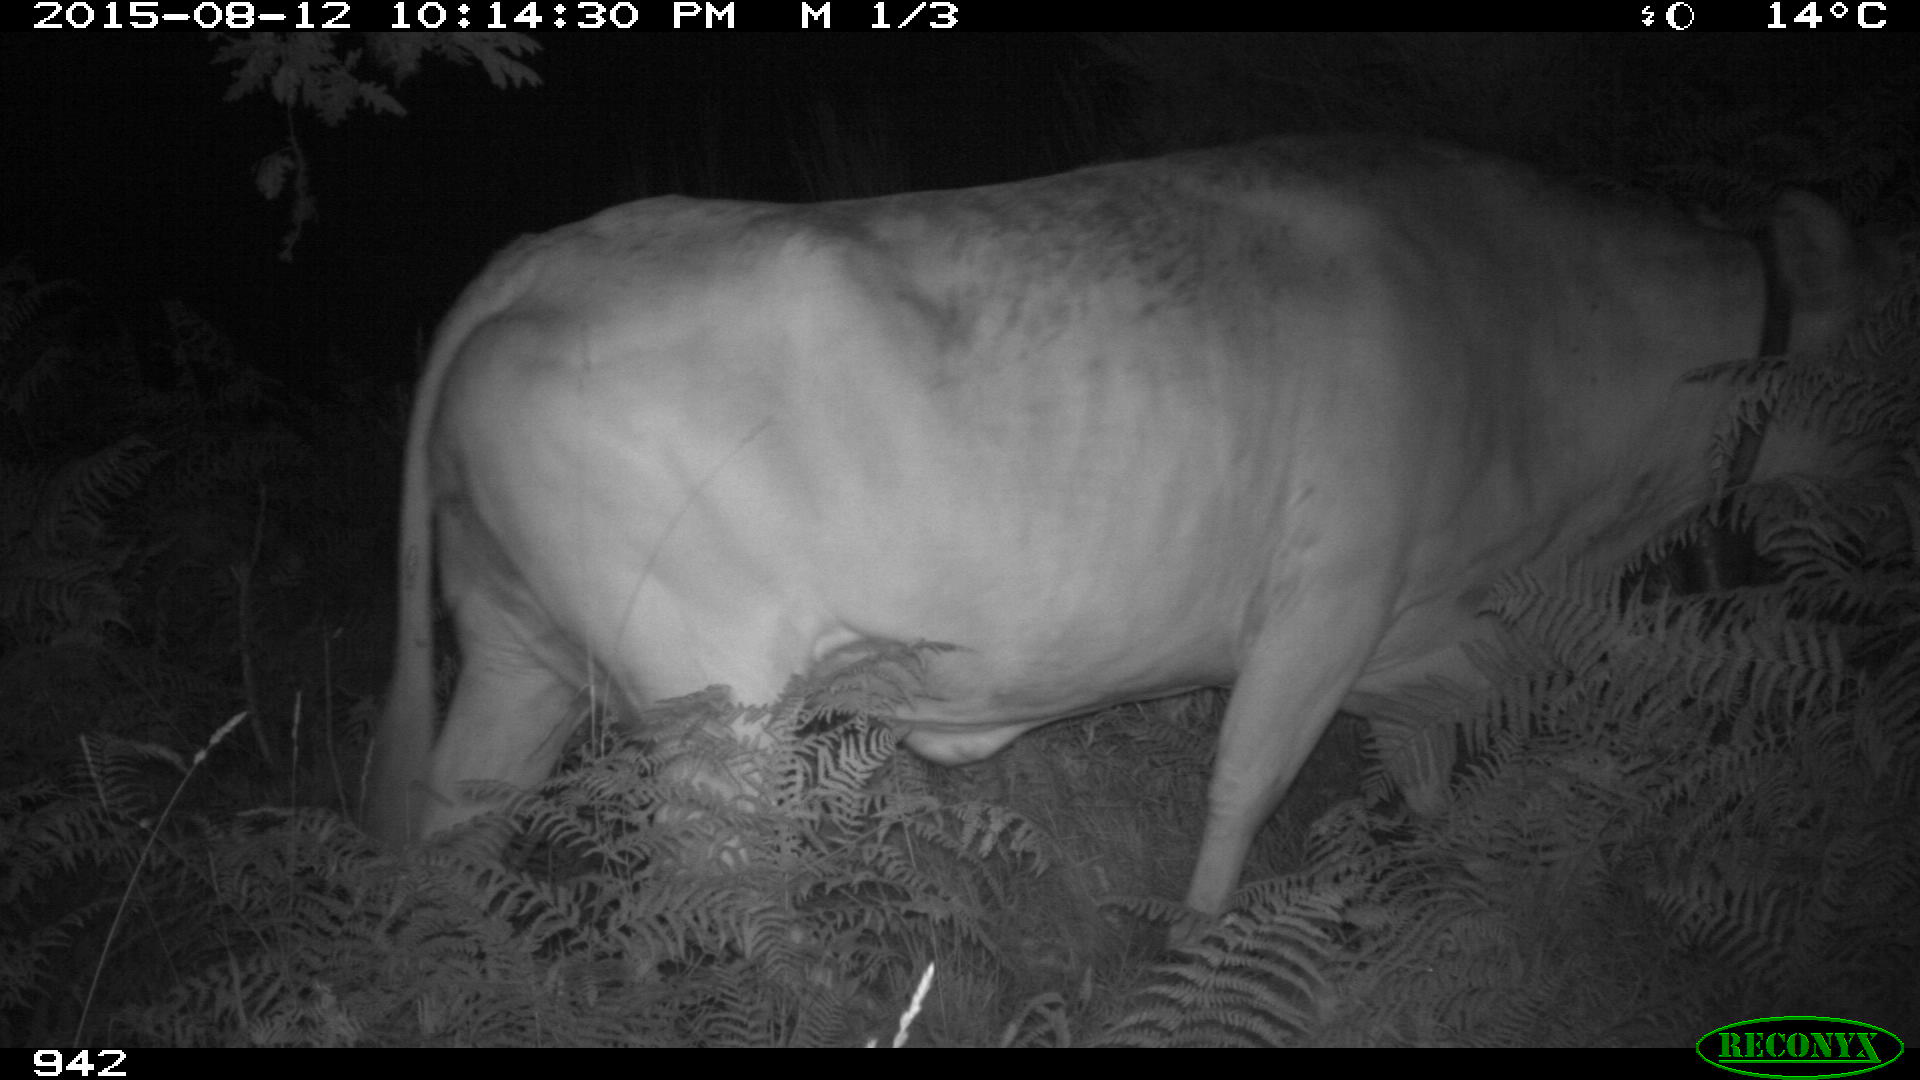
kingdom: Animalia
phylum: Chordata
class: Mammalia
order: Artiodactyla
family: Bovidae
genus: Bos
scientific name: Bos taurus
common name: Domesticated cattle
